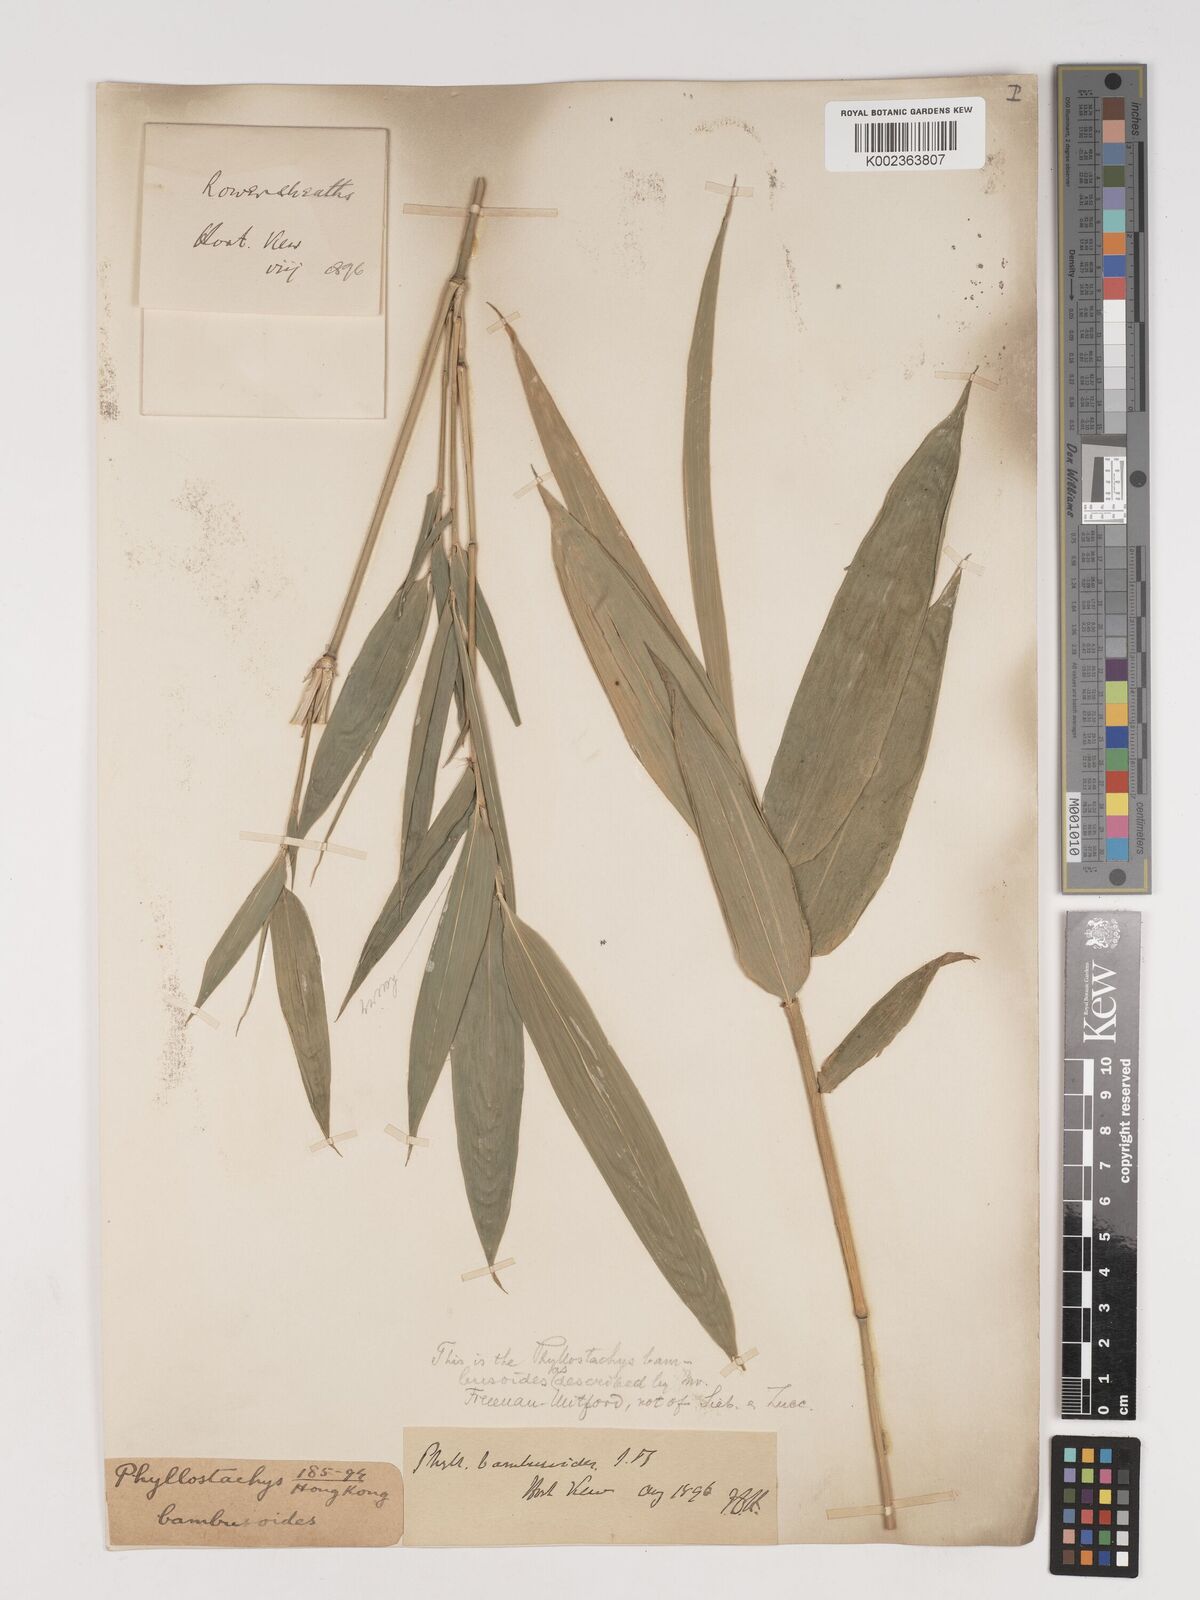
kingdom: Plantae
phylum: Tracheophyta
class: Liliopsida
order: Poales
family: Poaceae
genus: Phyllostachys
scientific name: Phyllostachys reticulata
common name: Bamboo
